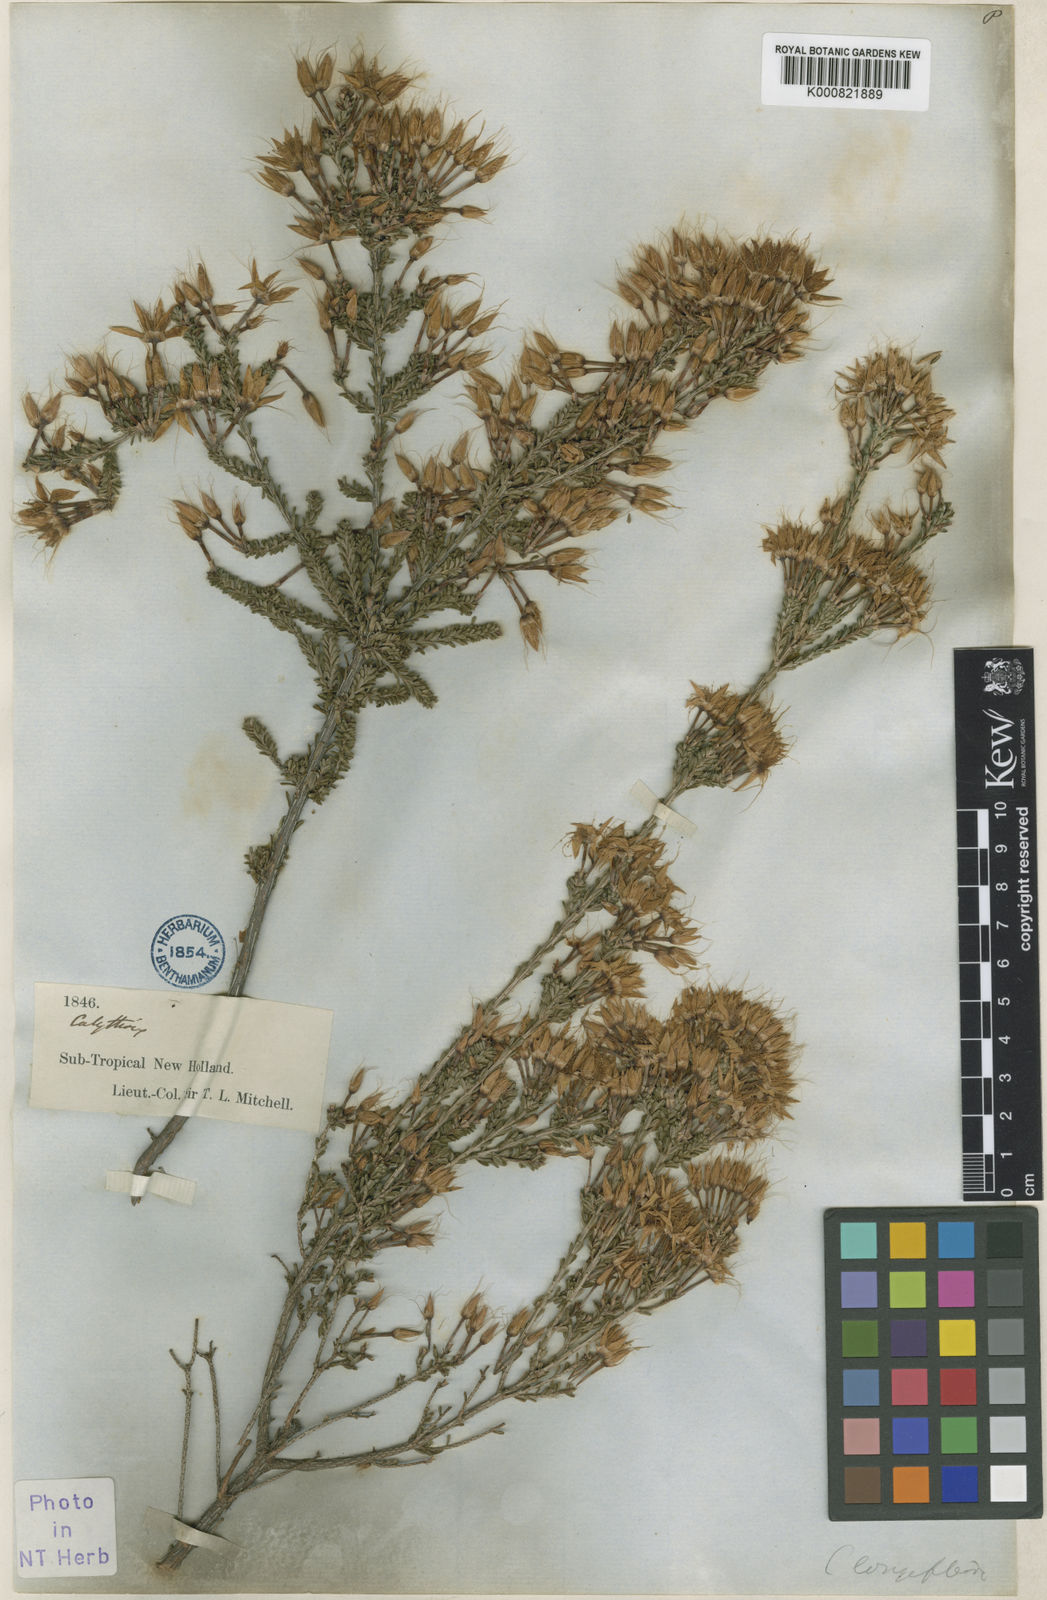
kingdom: Plantae
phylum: Tracheophyta
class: Magnoliopsida
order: Myrtales
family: Myrtaceae
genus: Calytrix
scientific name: Calytrix longiflora
